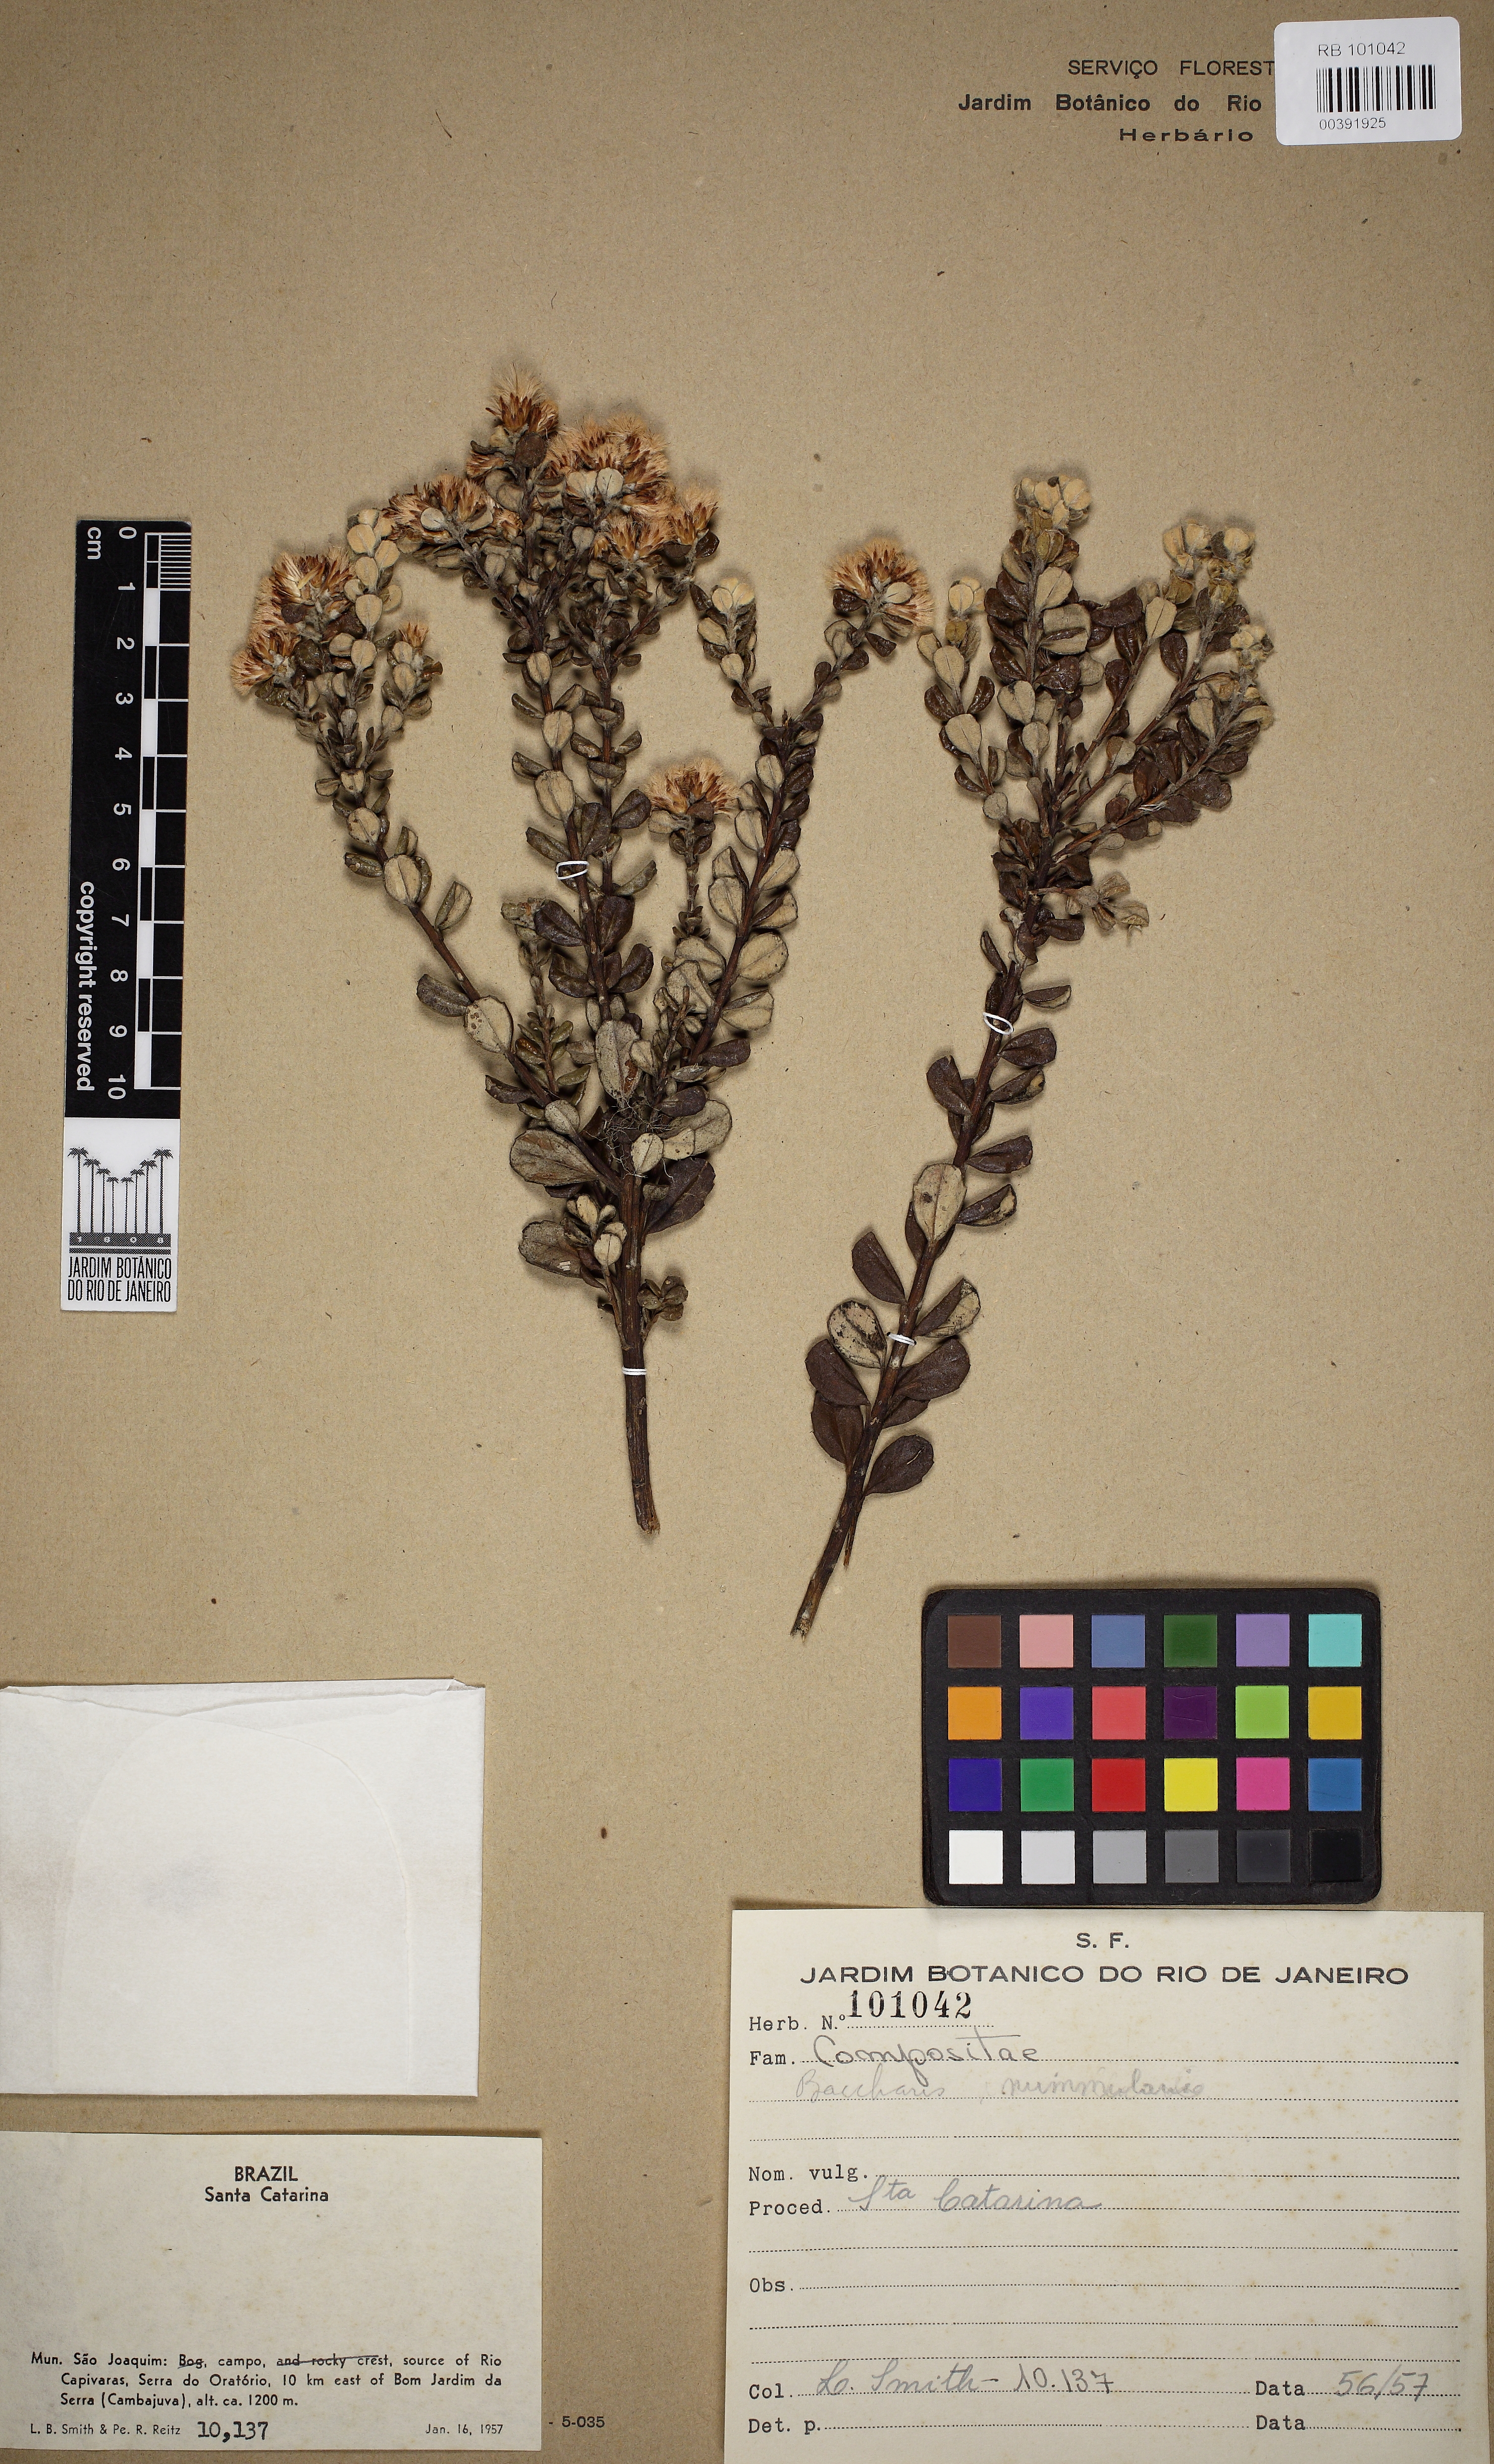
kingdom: Plantae
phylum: Tracheophyta
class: Magnoliopsida
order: Asterales
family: Asteraceae
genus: Baccharis
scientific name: Baccharis nummularia
